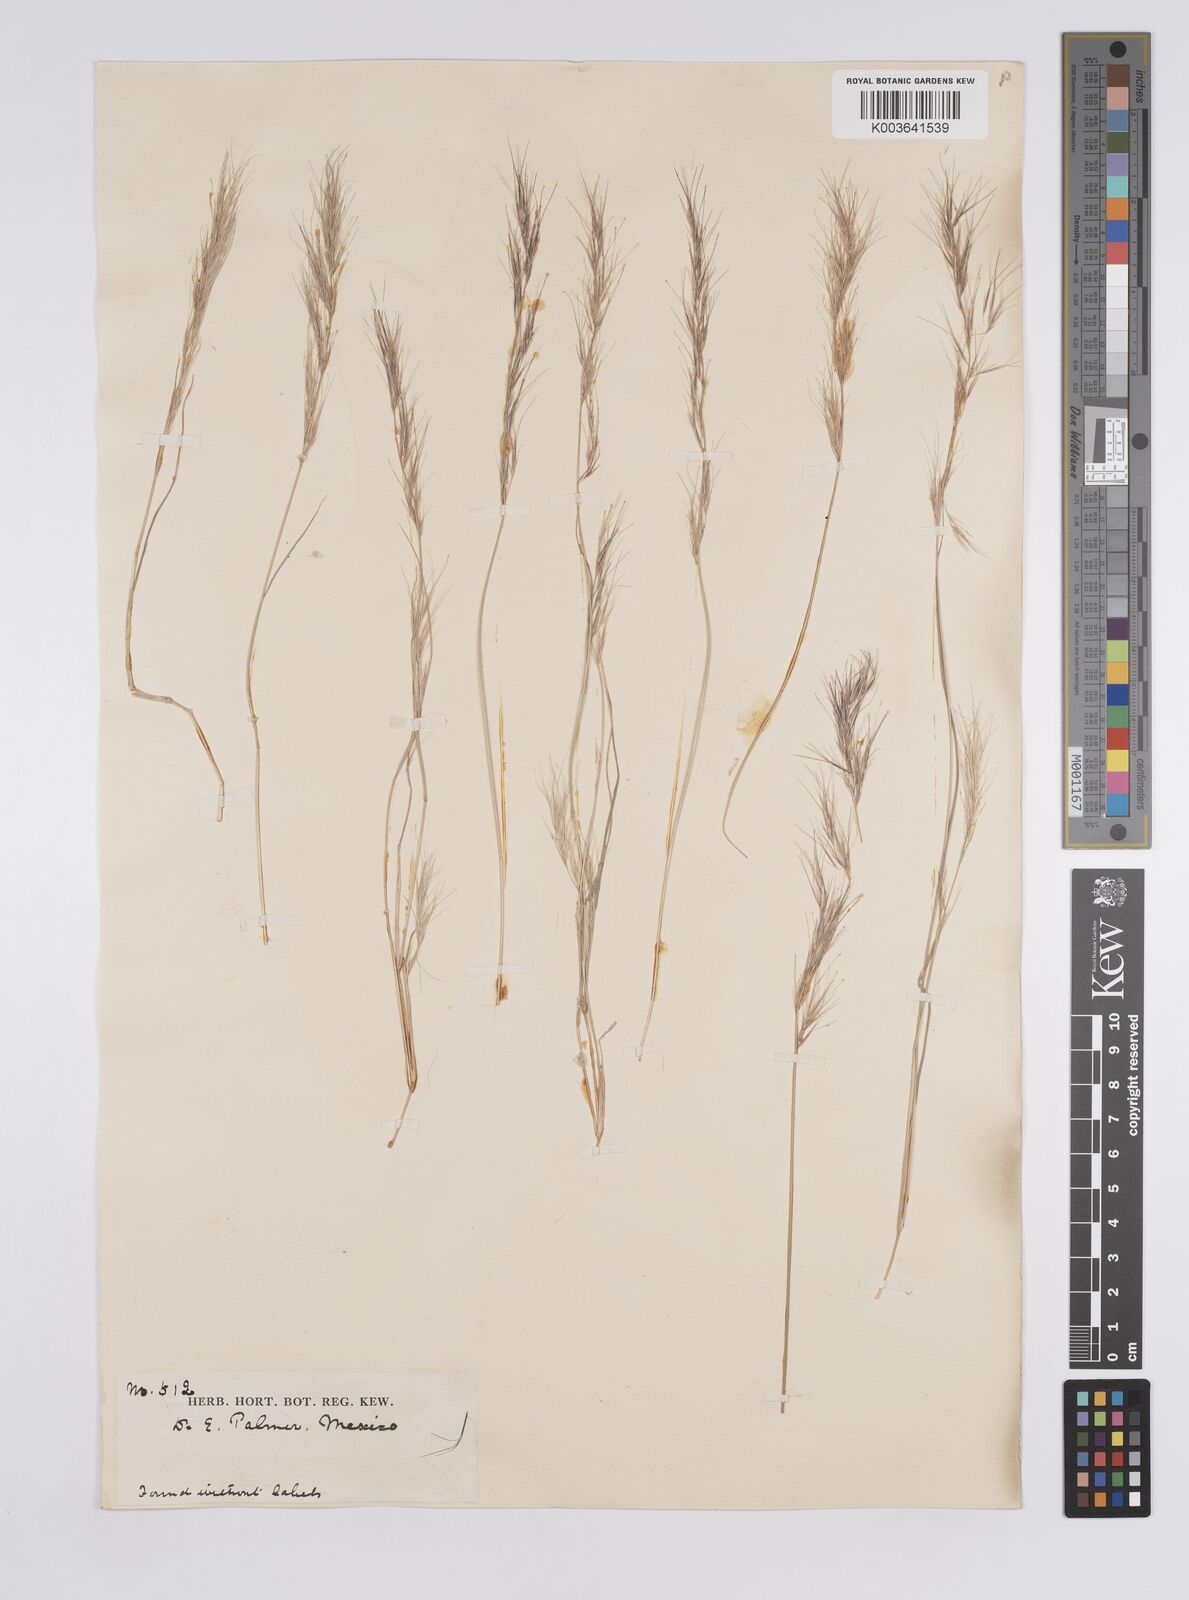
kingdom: Plantae
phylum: Tracheophyta
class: Liliopsida
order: Poales
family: Poaceae
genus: Aristida
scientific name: Aristida
